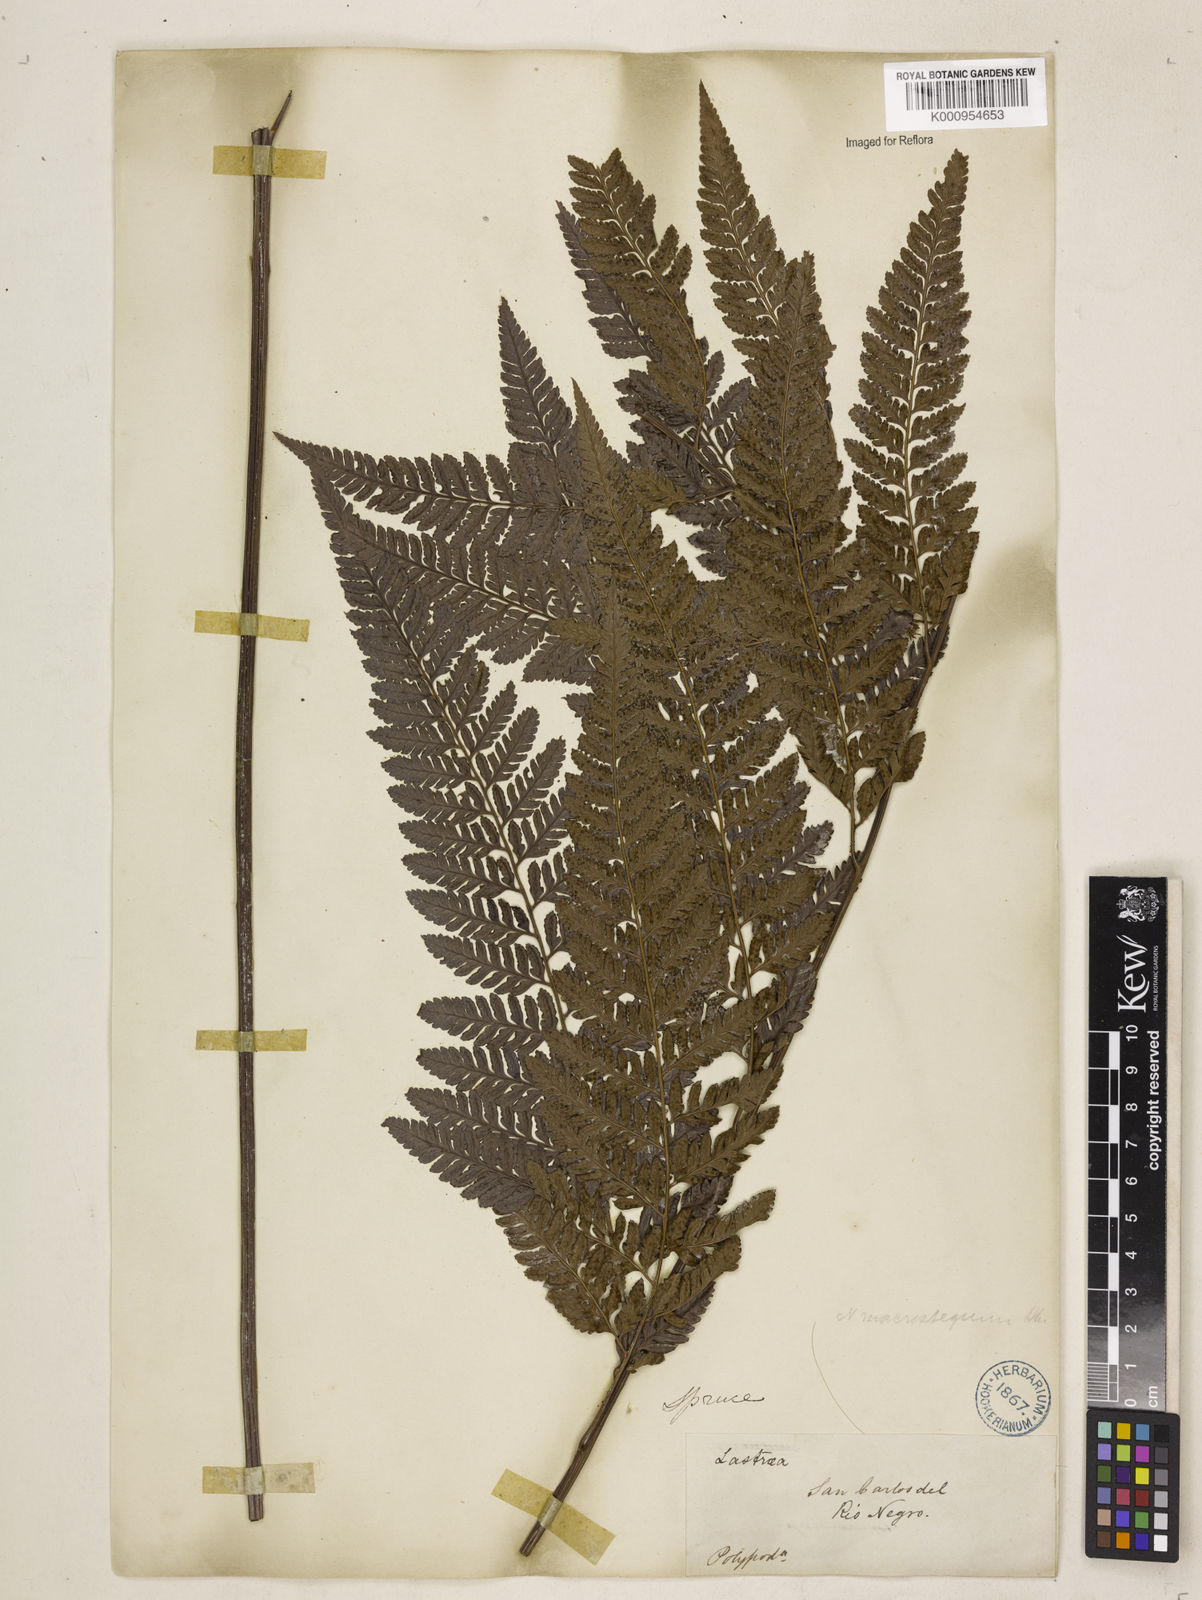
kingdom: Plantae
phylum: Tracheophyta
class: Polypodiopsida
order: Polypodiales
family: Dryopteridaceae
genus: Arachniodes
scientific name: Arachniodes
